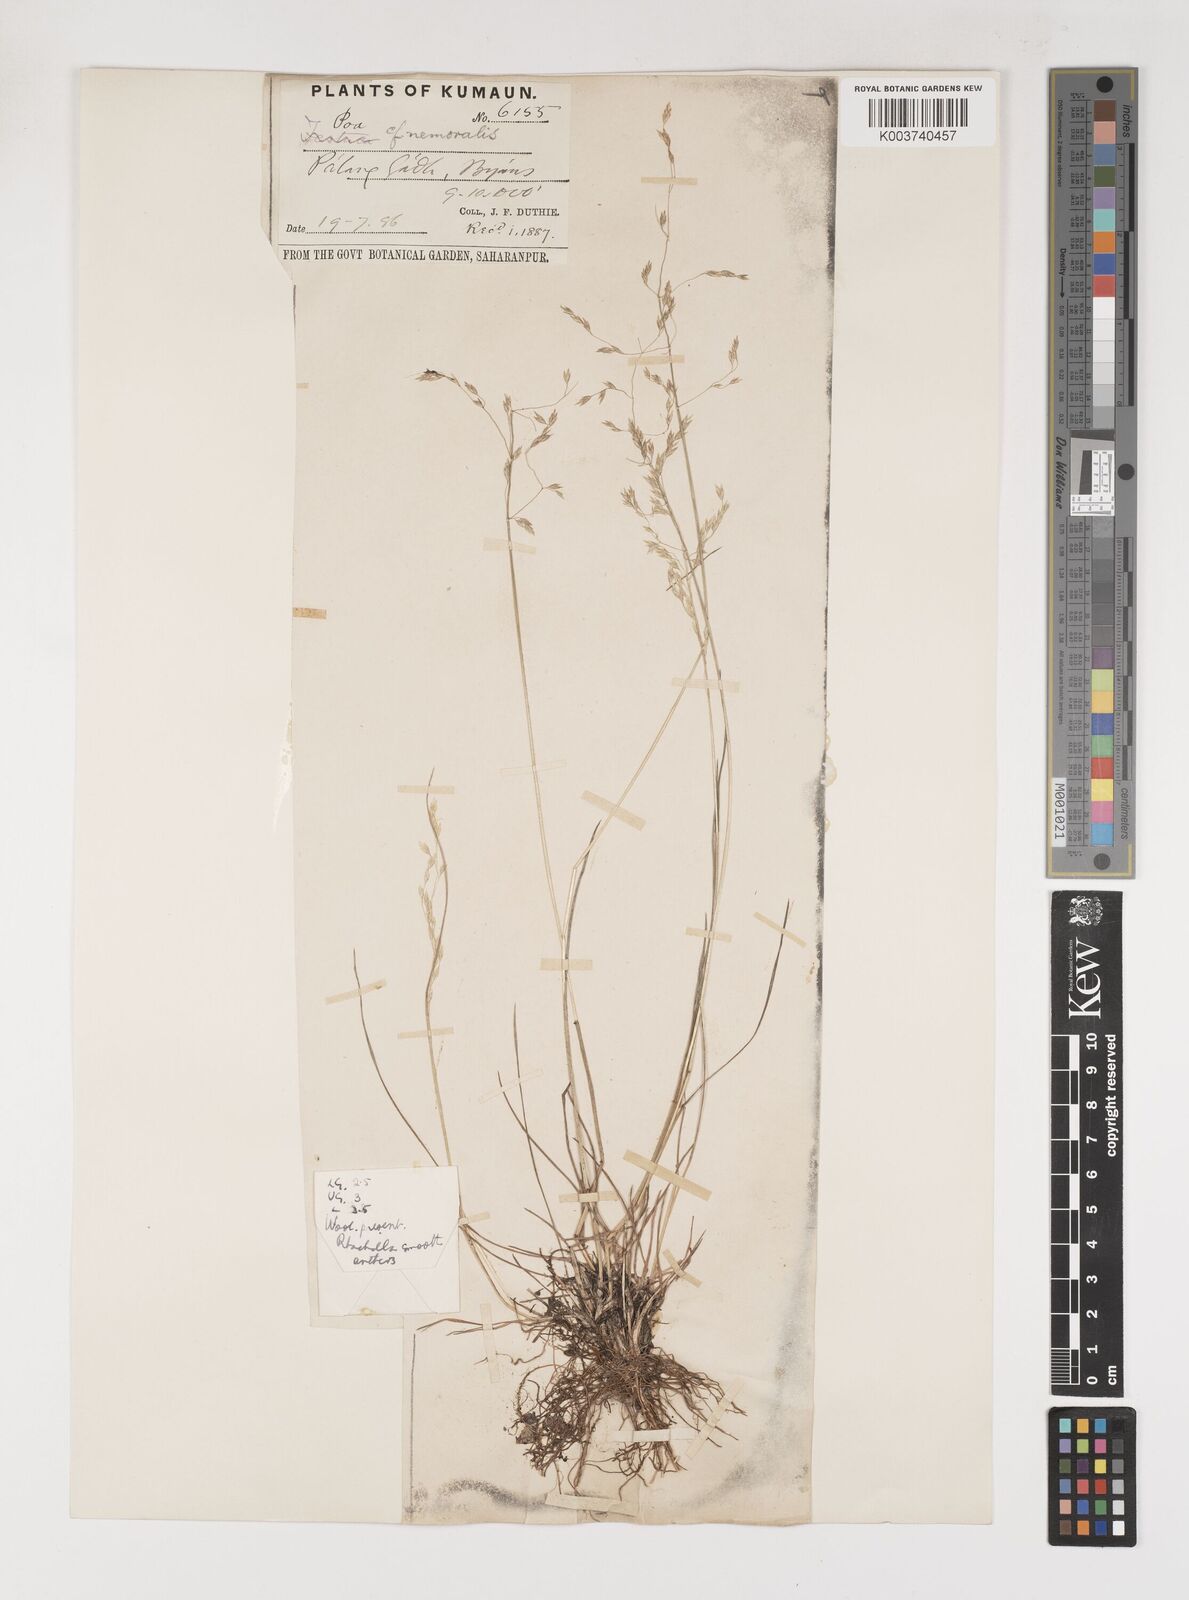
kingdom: Plantae
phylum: Tracheophyta
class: Liliopsida
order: Poales
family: Poaceae
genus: Poa
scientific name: Poa polycolea
